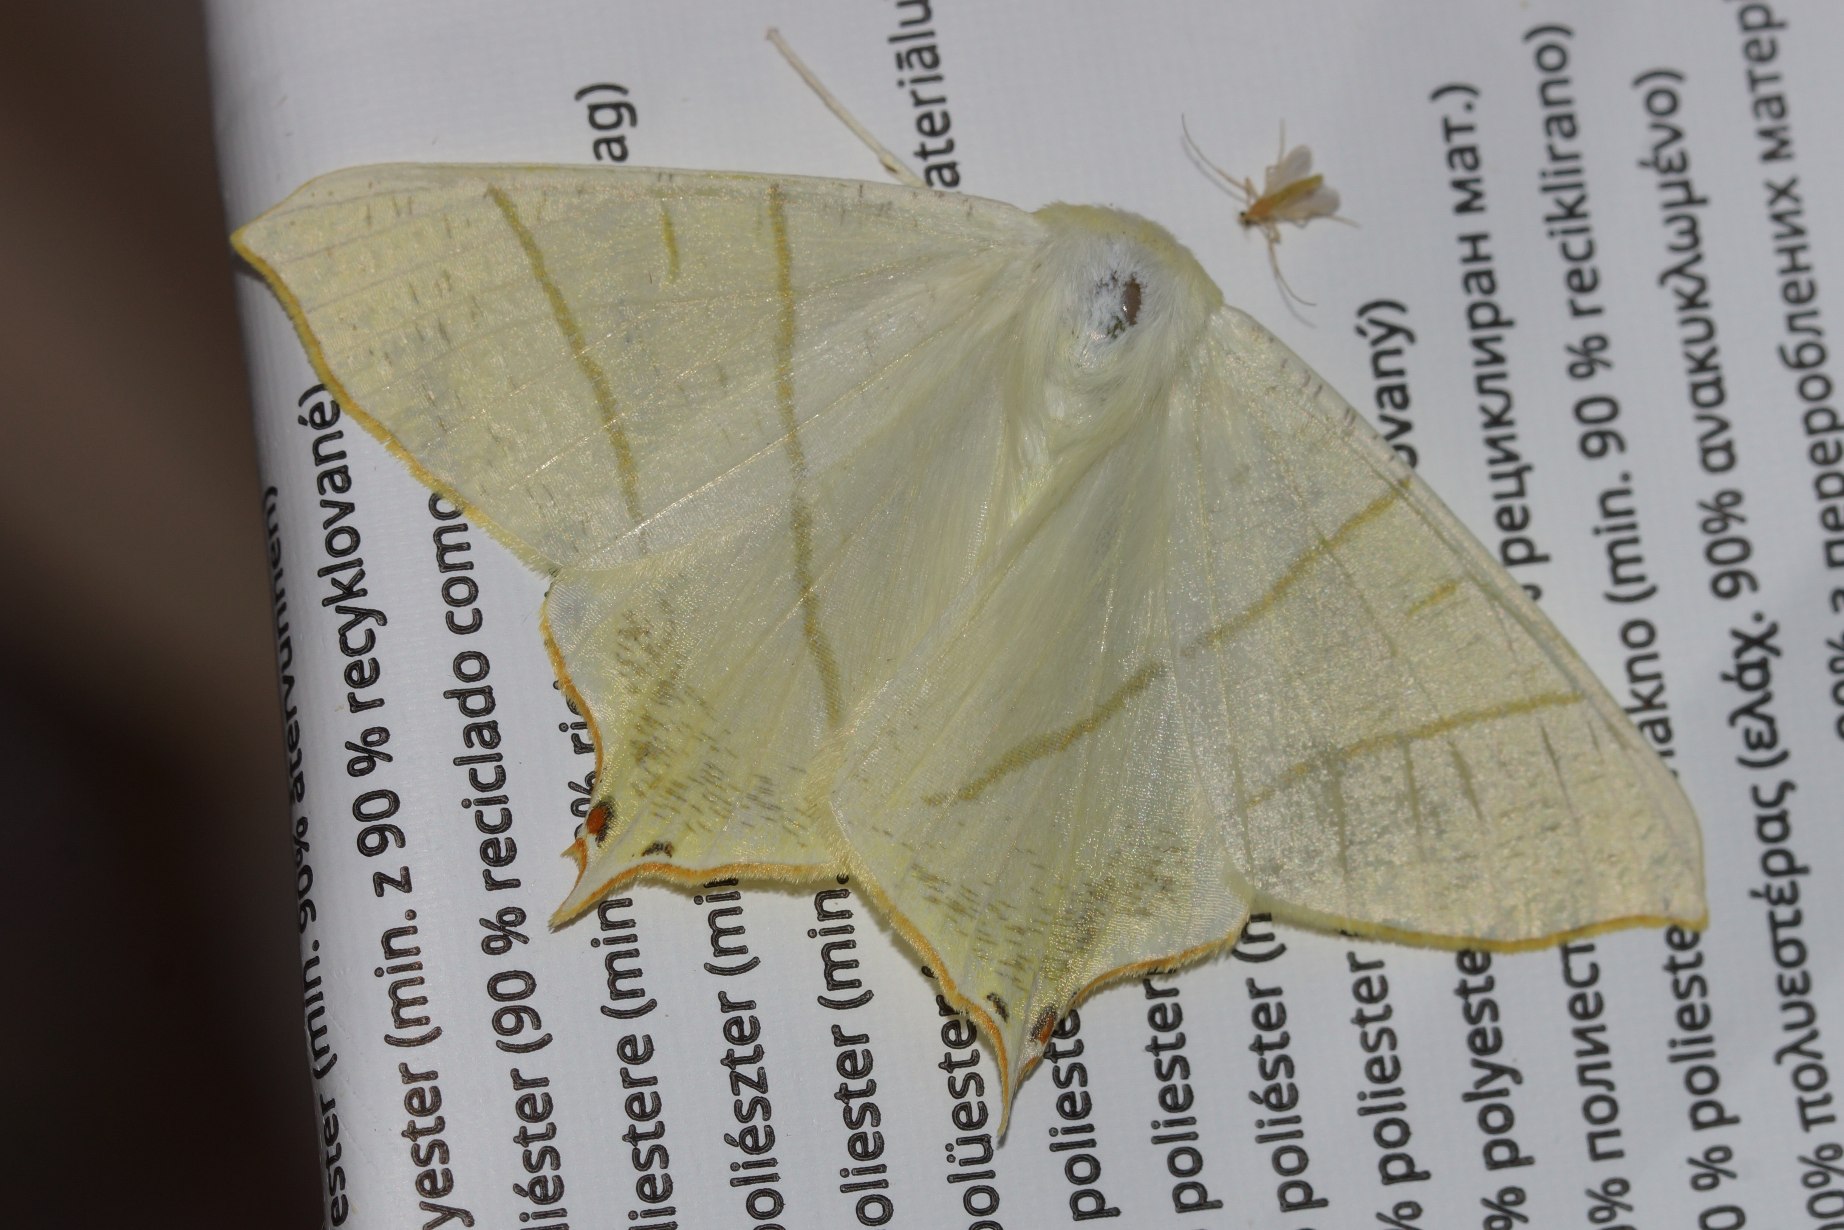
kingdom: Animalia
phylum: Arthropoda
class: Insecta
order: Lepidoptera
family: Geometridae
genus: Ourapteryx
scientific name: Ourapteryx sambucaria
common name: Natsvalehale
